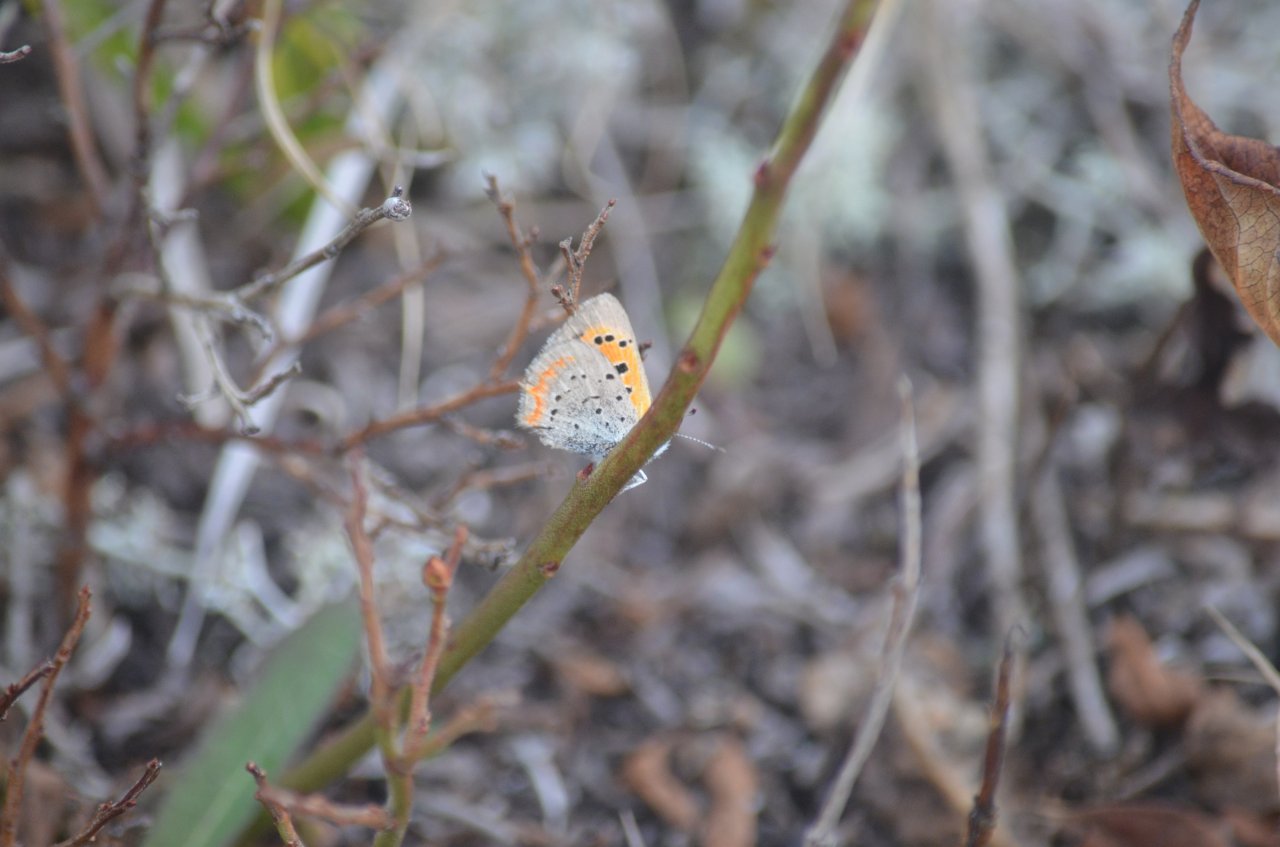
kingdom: Animalia
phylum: Arthropoda
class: Insecta
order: Lepidoptera
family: Lycaenidae
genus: Lycaena
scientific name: Lycaena phlaeas
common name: American Copper
